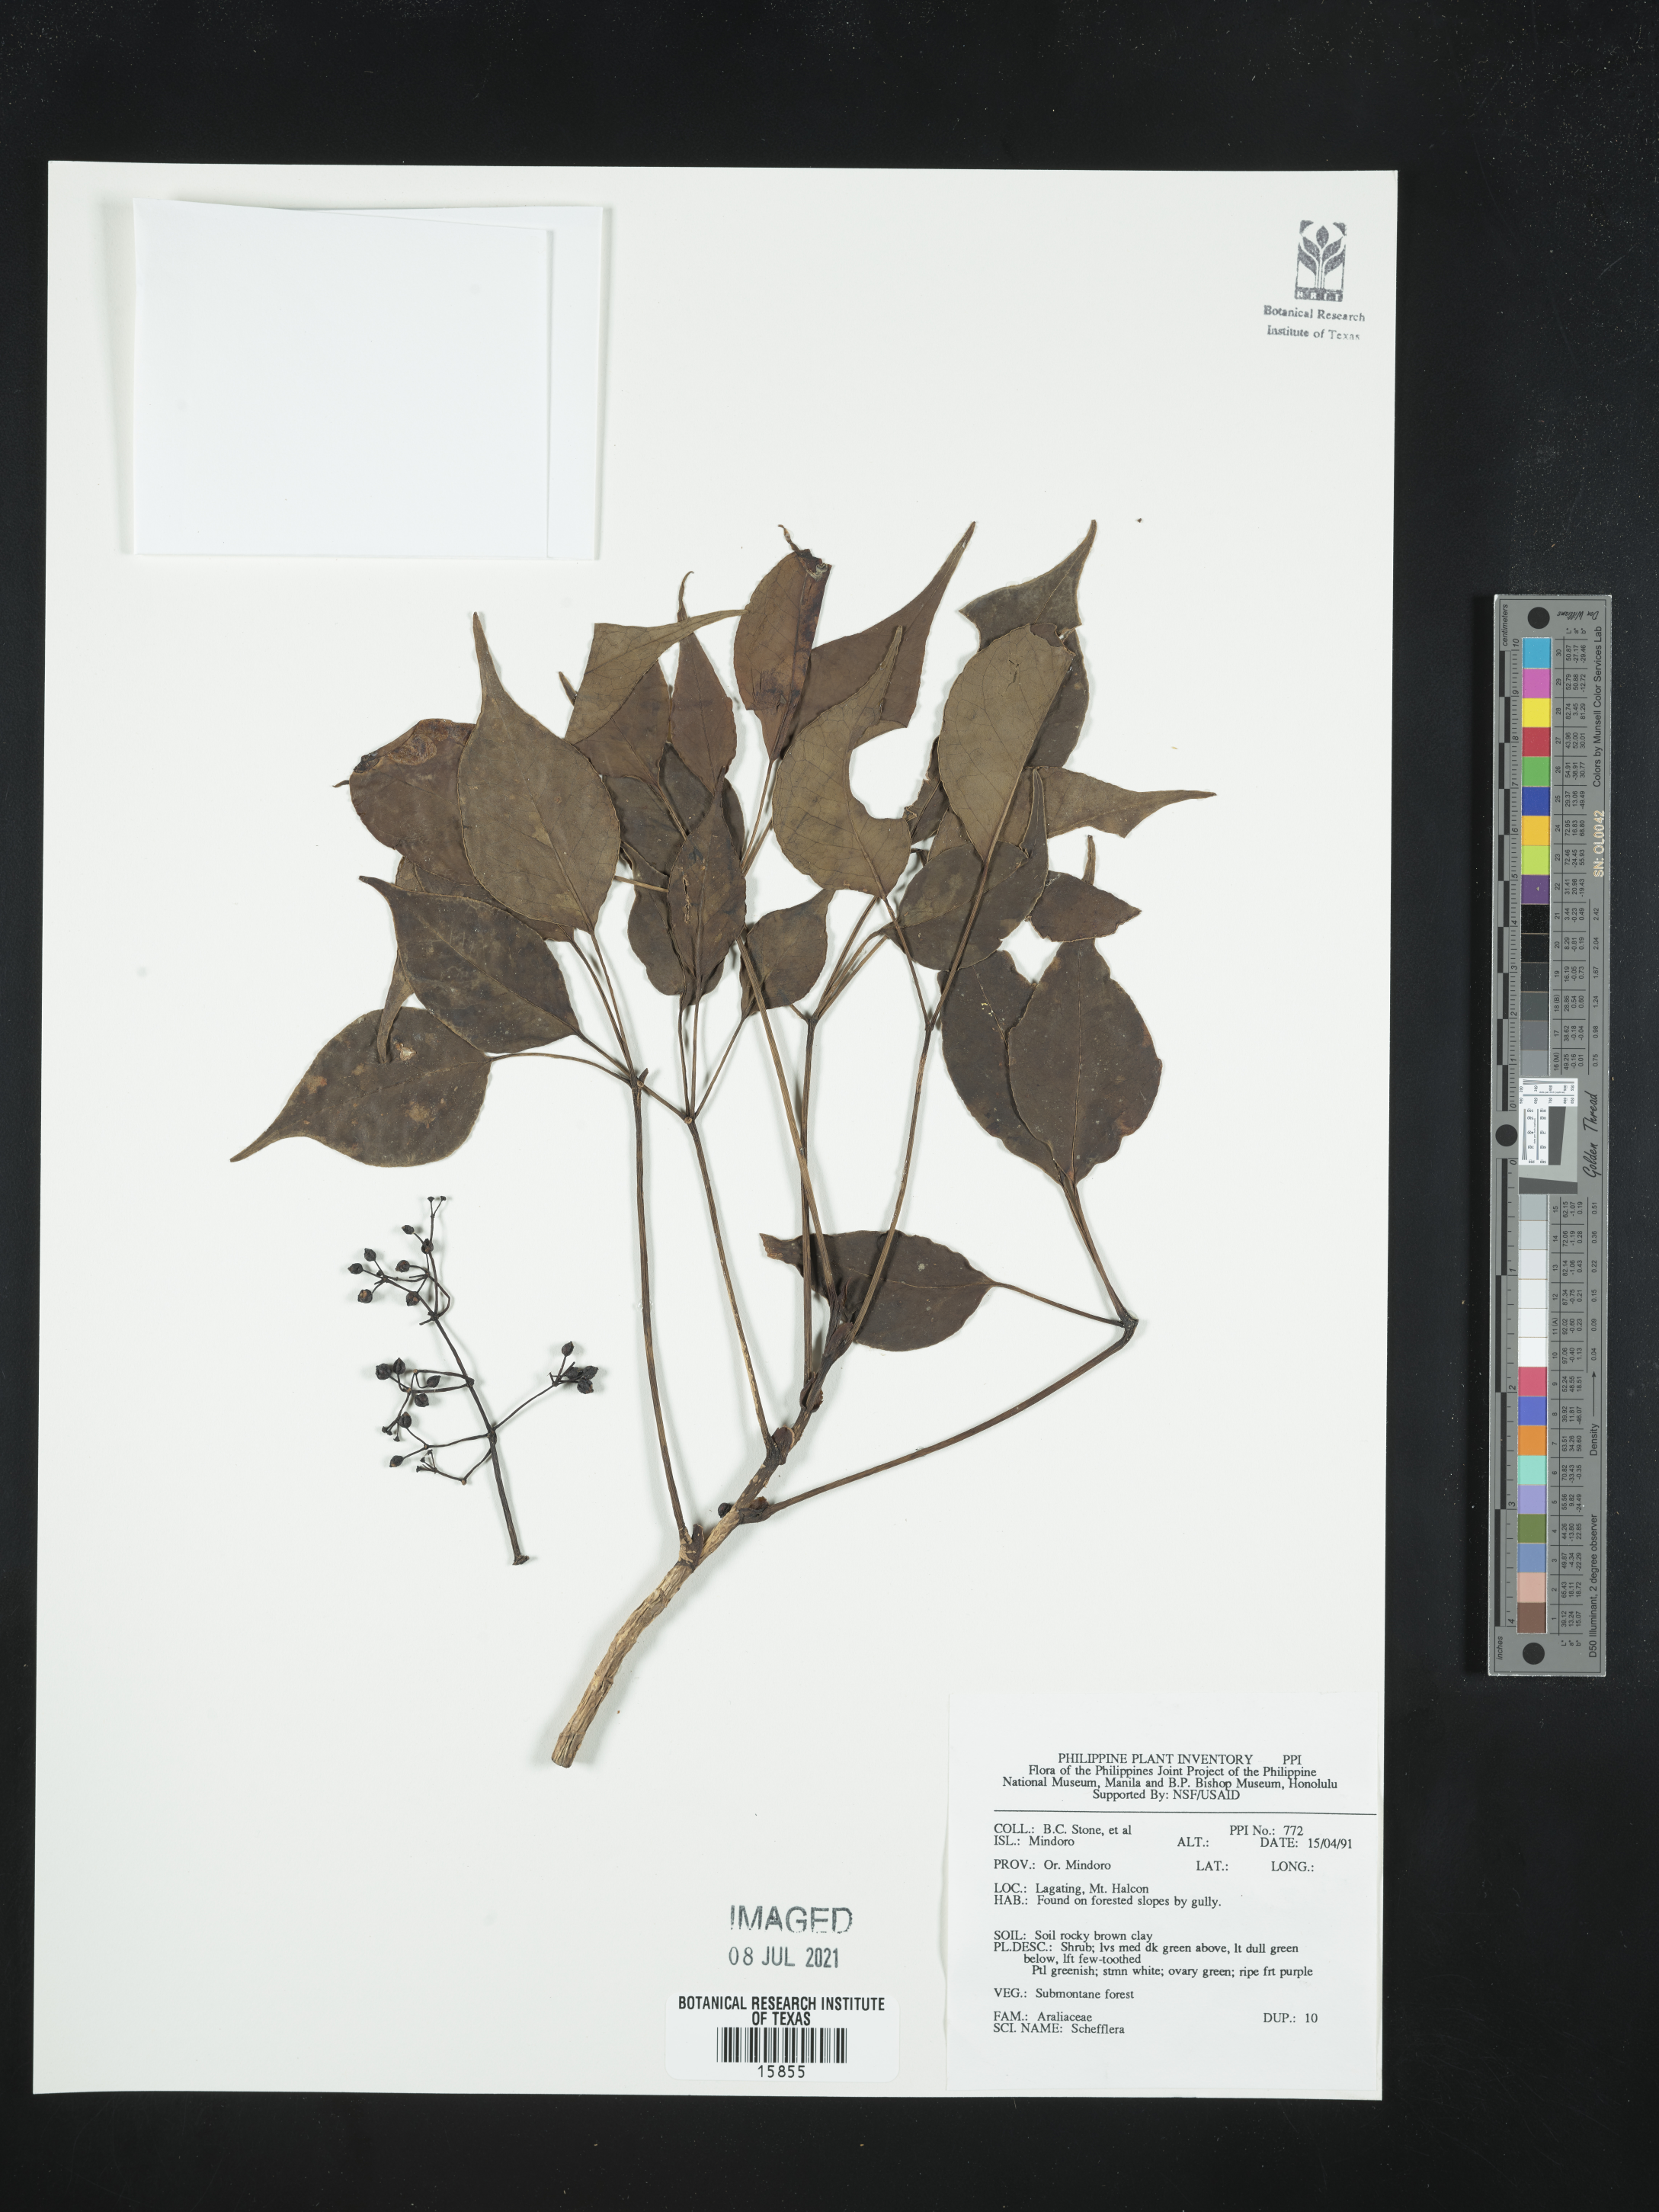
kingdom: Plantae
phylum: Tracheophyta
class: Magnoliopsida
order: Apiales
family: Araliaceae
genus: Schefflera
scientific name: Schefflera
